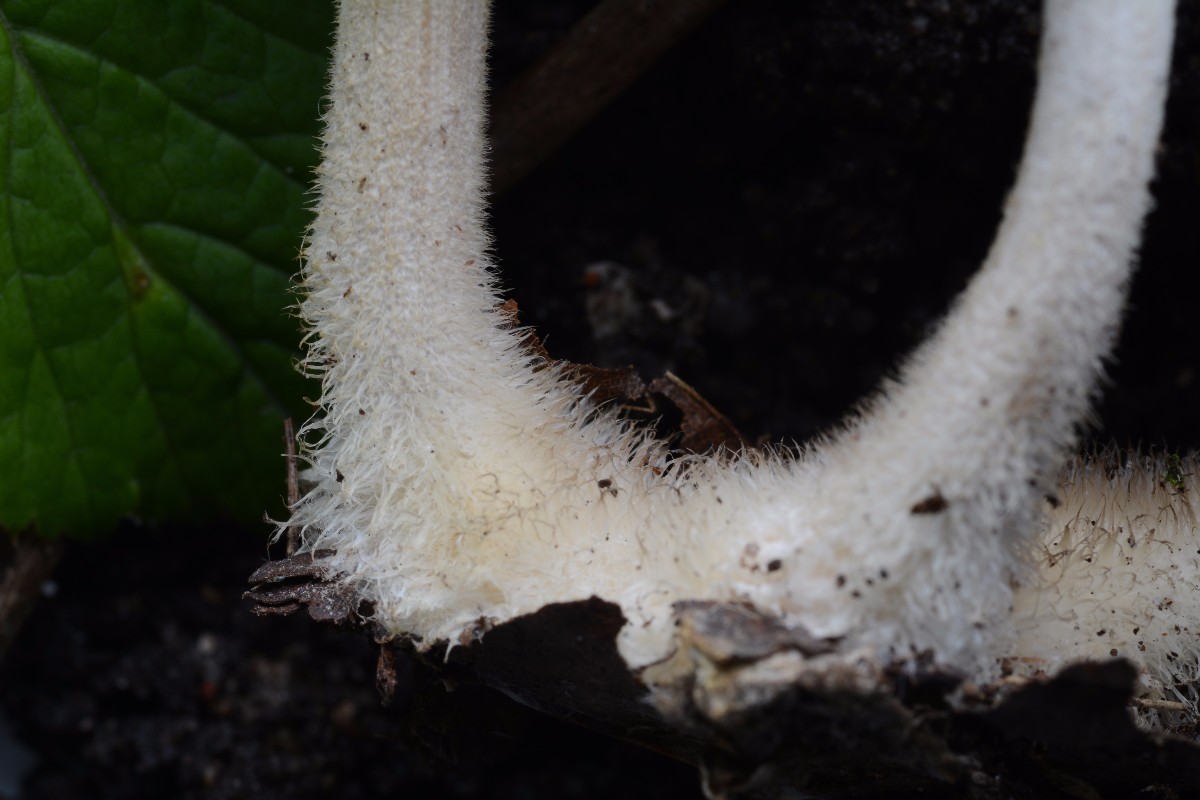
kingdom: Fungi
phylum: Basidiomycota
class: Agaricomycetes
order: Agaricales
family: Omphalotaceae
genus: Gymnopus
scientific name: Gymnopus hariolorum
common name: hvidkåls-fladhat
